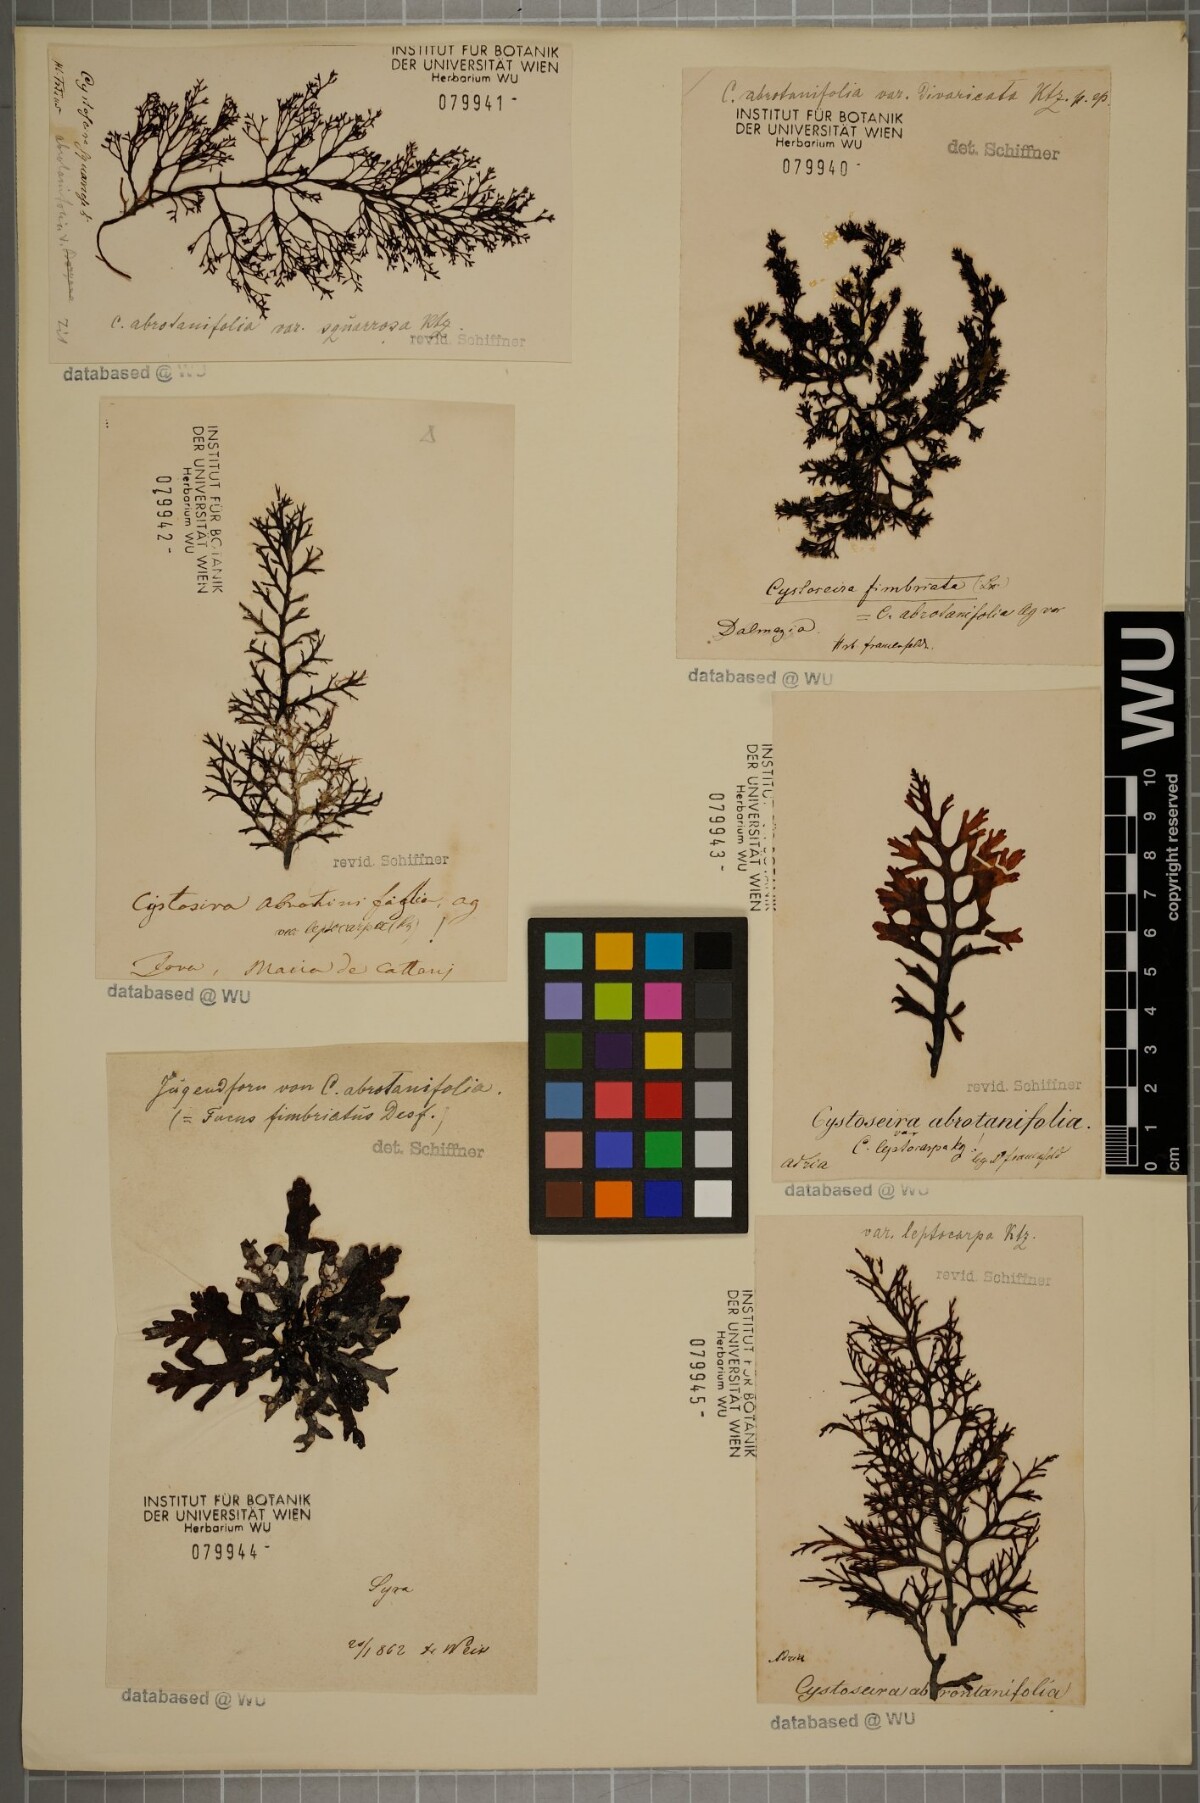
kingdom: Chromista
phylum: Ochrophyta
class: Phaeophyceae
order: Fucales
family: Sargassaceae
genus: Cystoseira
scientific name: Cystoseira foeniculacea
